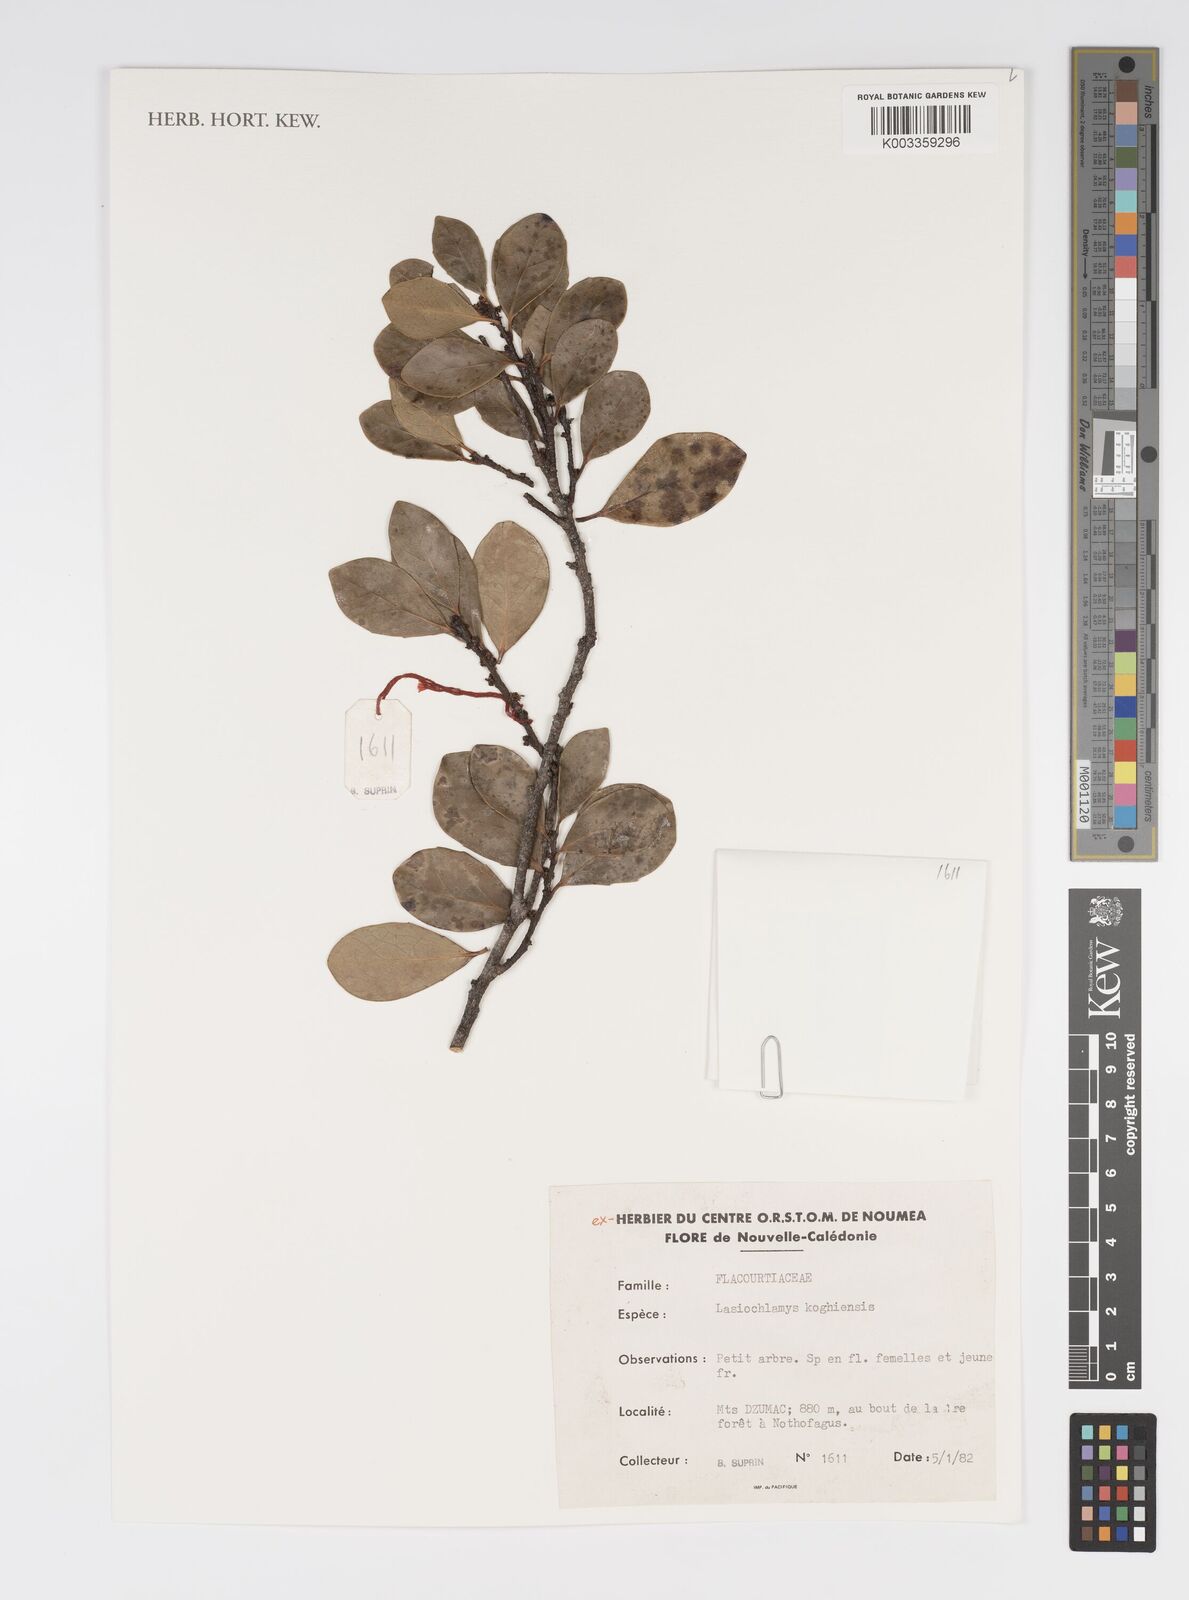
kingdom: Plantae
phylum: Tracheophyta
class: Magnoliopsida
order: Malpighiales
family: Salicaceae
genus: Lasiochlamys
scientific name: Lasiochlamys koghiensis
